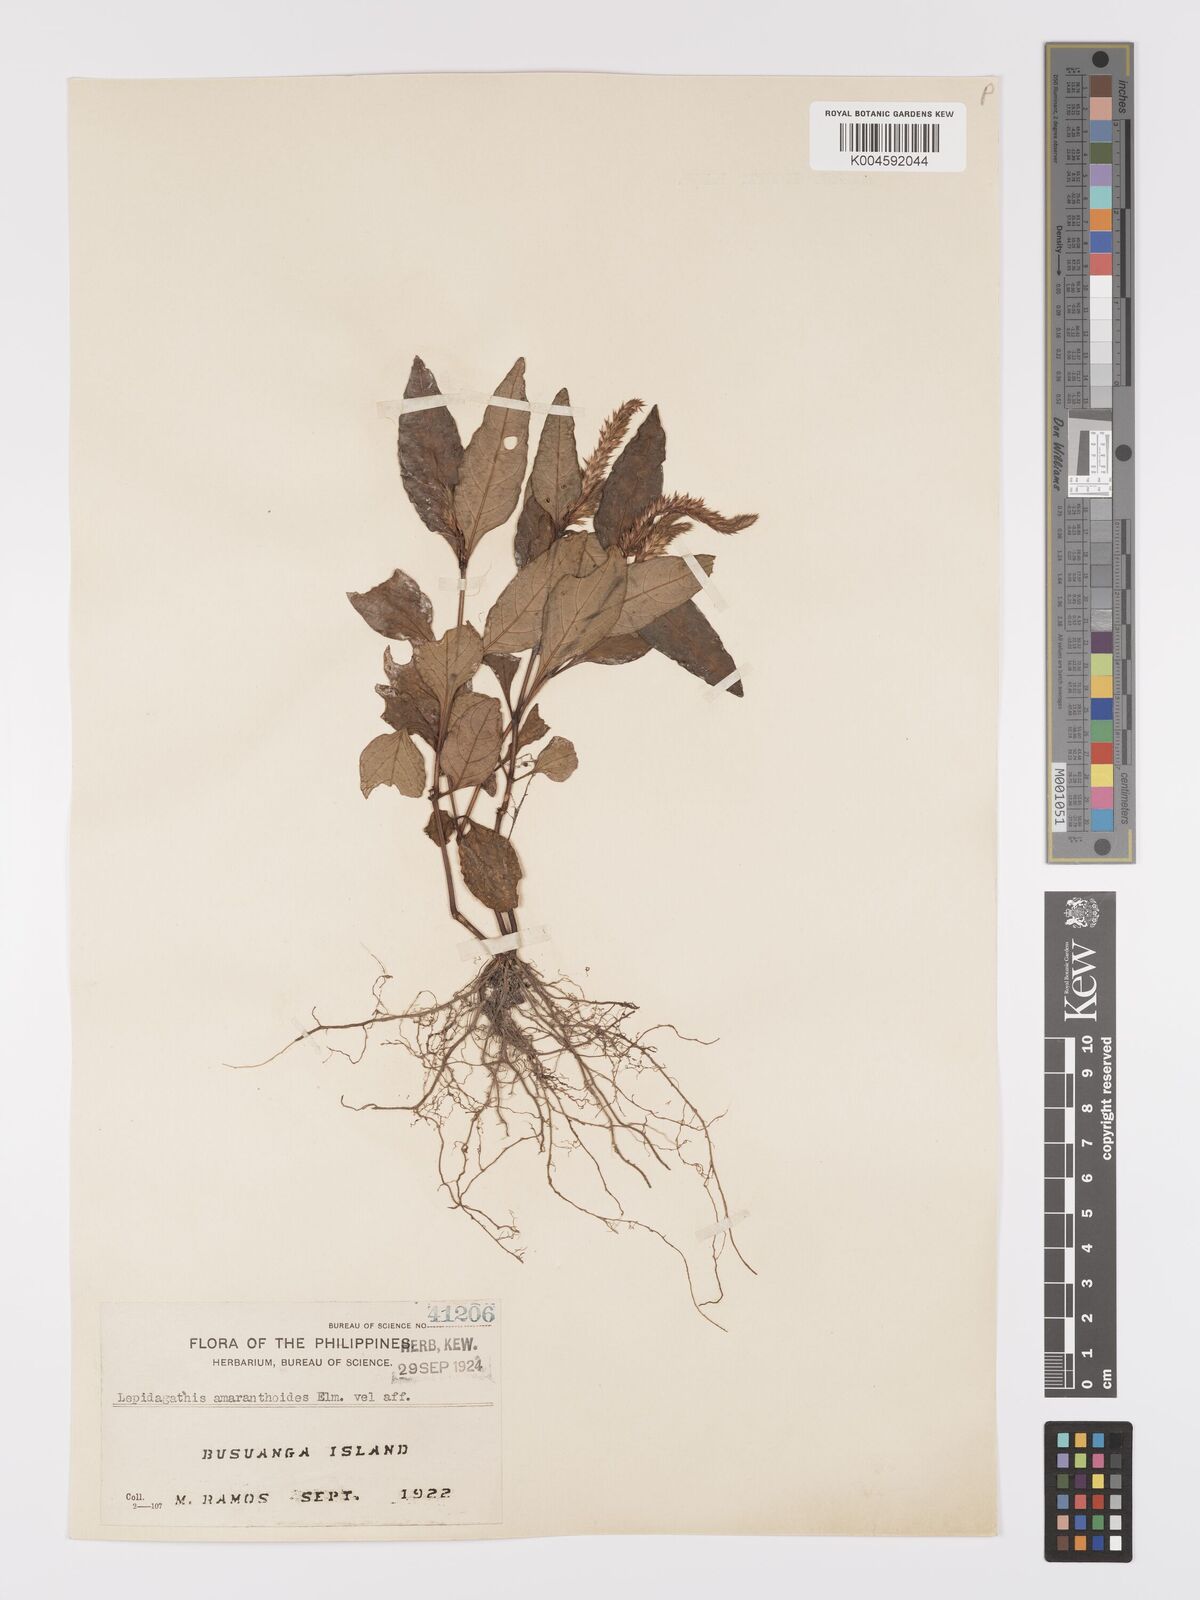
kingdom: Plantae
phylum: Tracheophyta
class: Magnoliopsida
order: Lamiales
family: Acanthaceae
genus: Lepidagathis
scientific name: Lepidagathis amaranthoides
